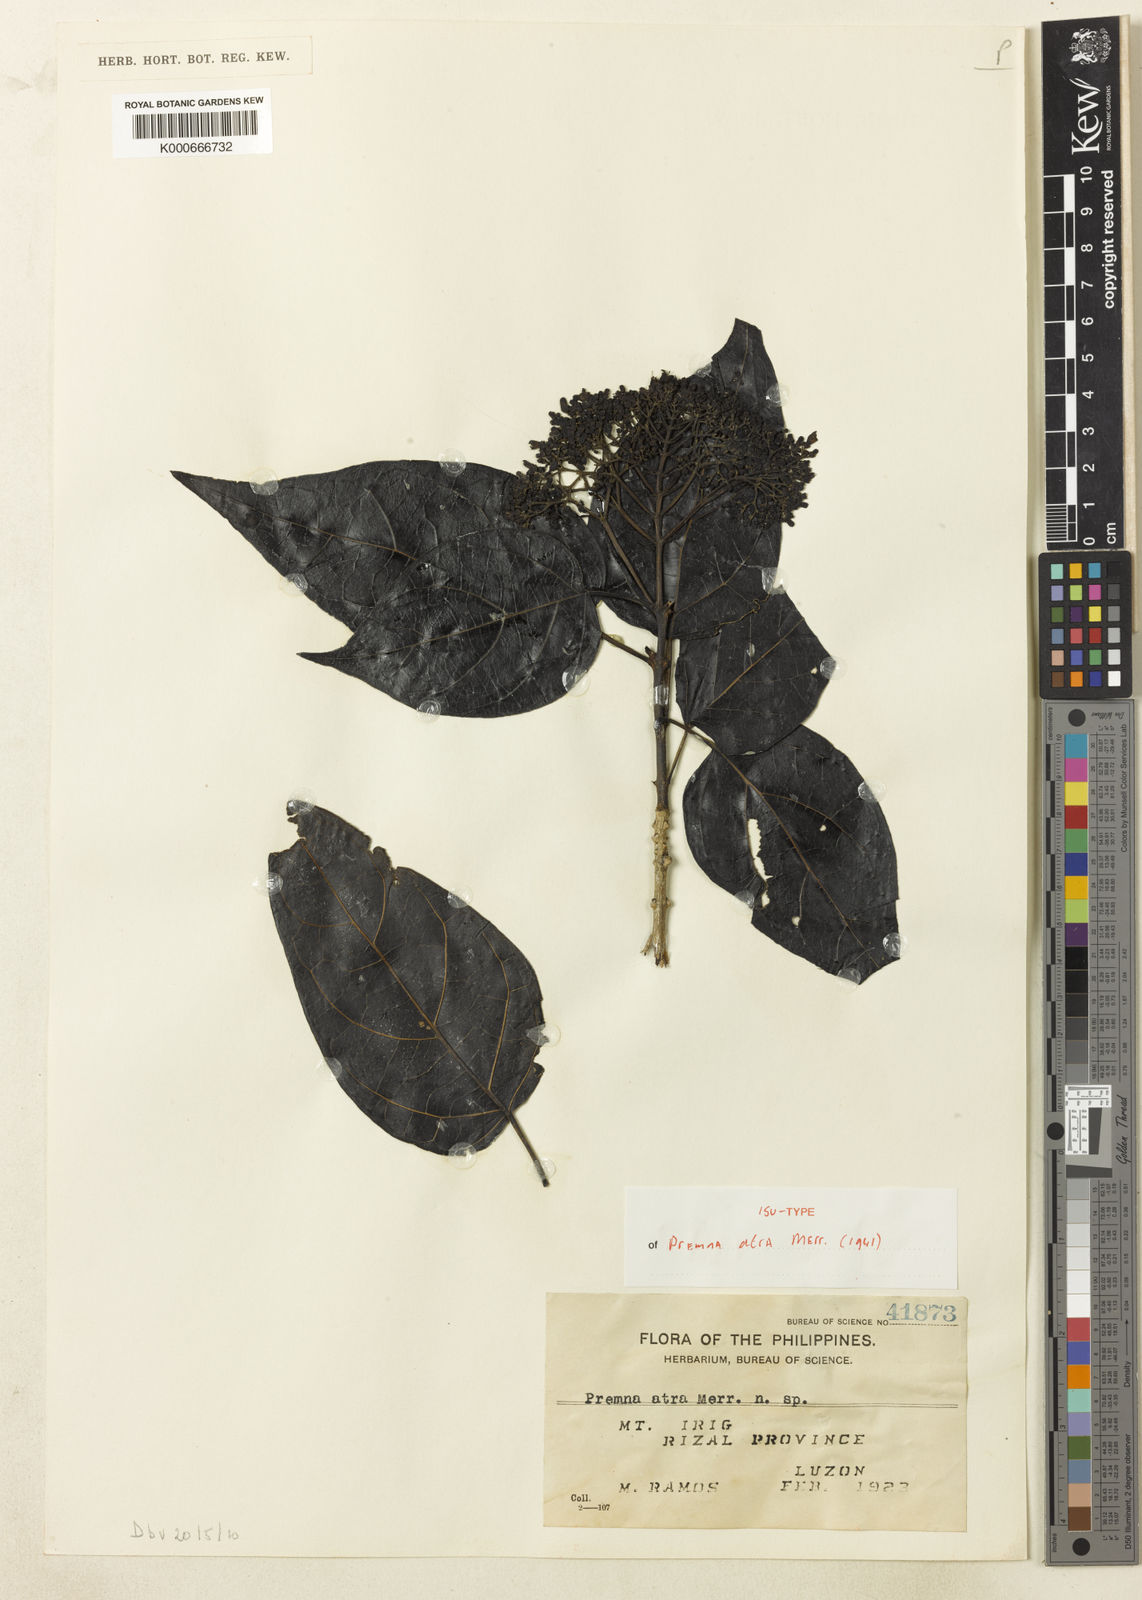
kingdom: Plantae
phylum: Tracheophyta
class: Magnoliopsida
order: Lamiales
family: Lamiaceae
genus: Premna
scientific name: Premna serratifolia
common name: Bastard guelder
